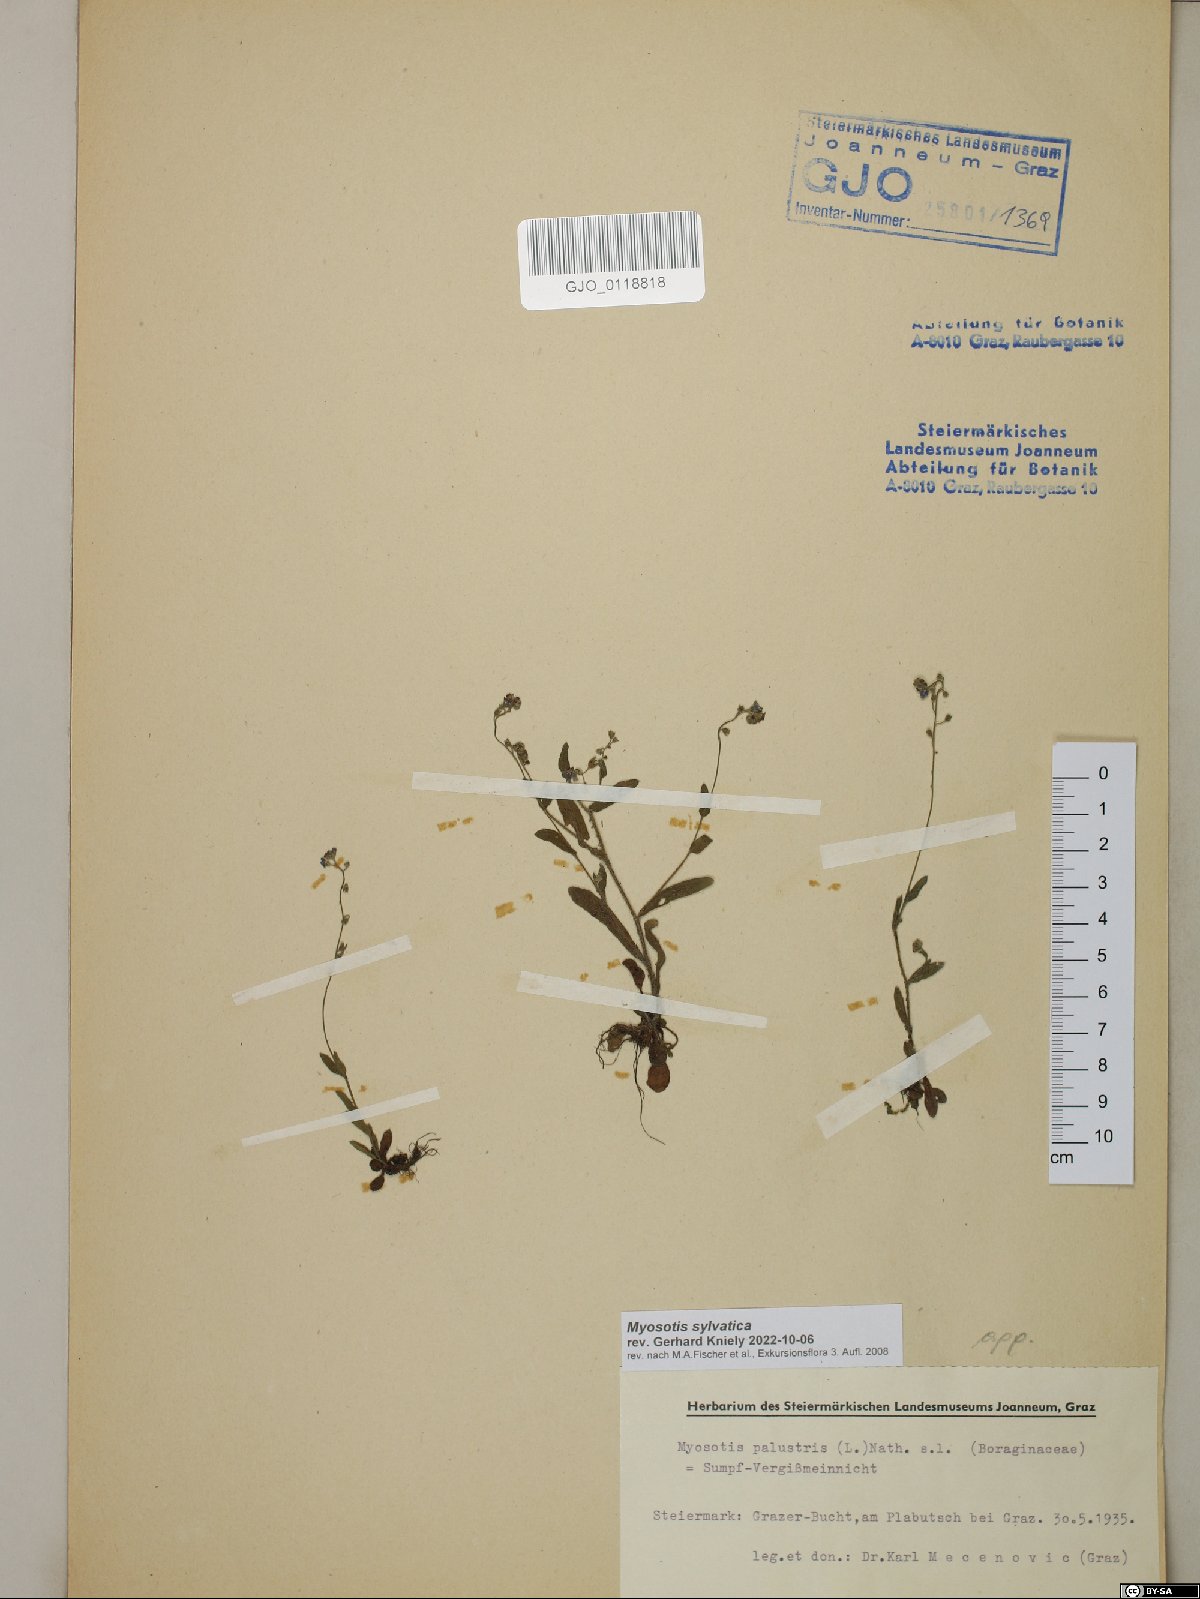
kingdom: Plantae
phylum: Tracheophyta
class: Magnoliopsida
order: Boraginales
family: Boraginaceae
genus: Myosotis
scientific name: Myosotis sylvatica
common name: Wood forget-me-not
